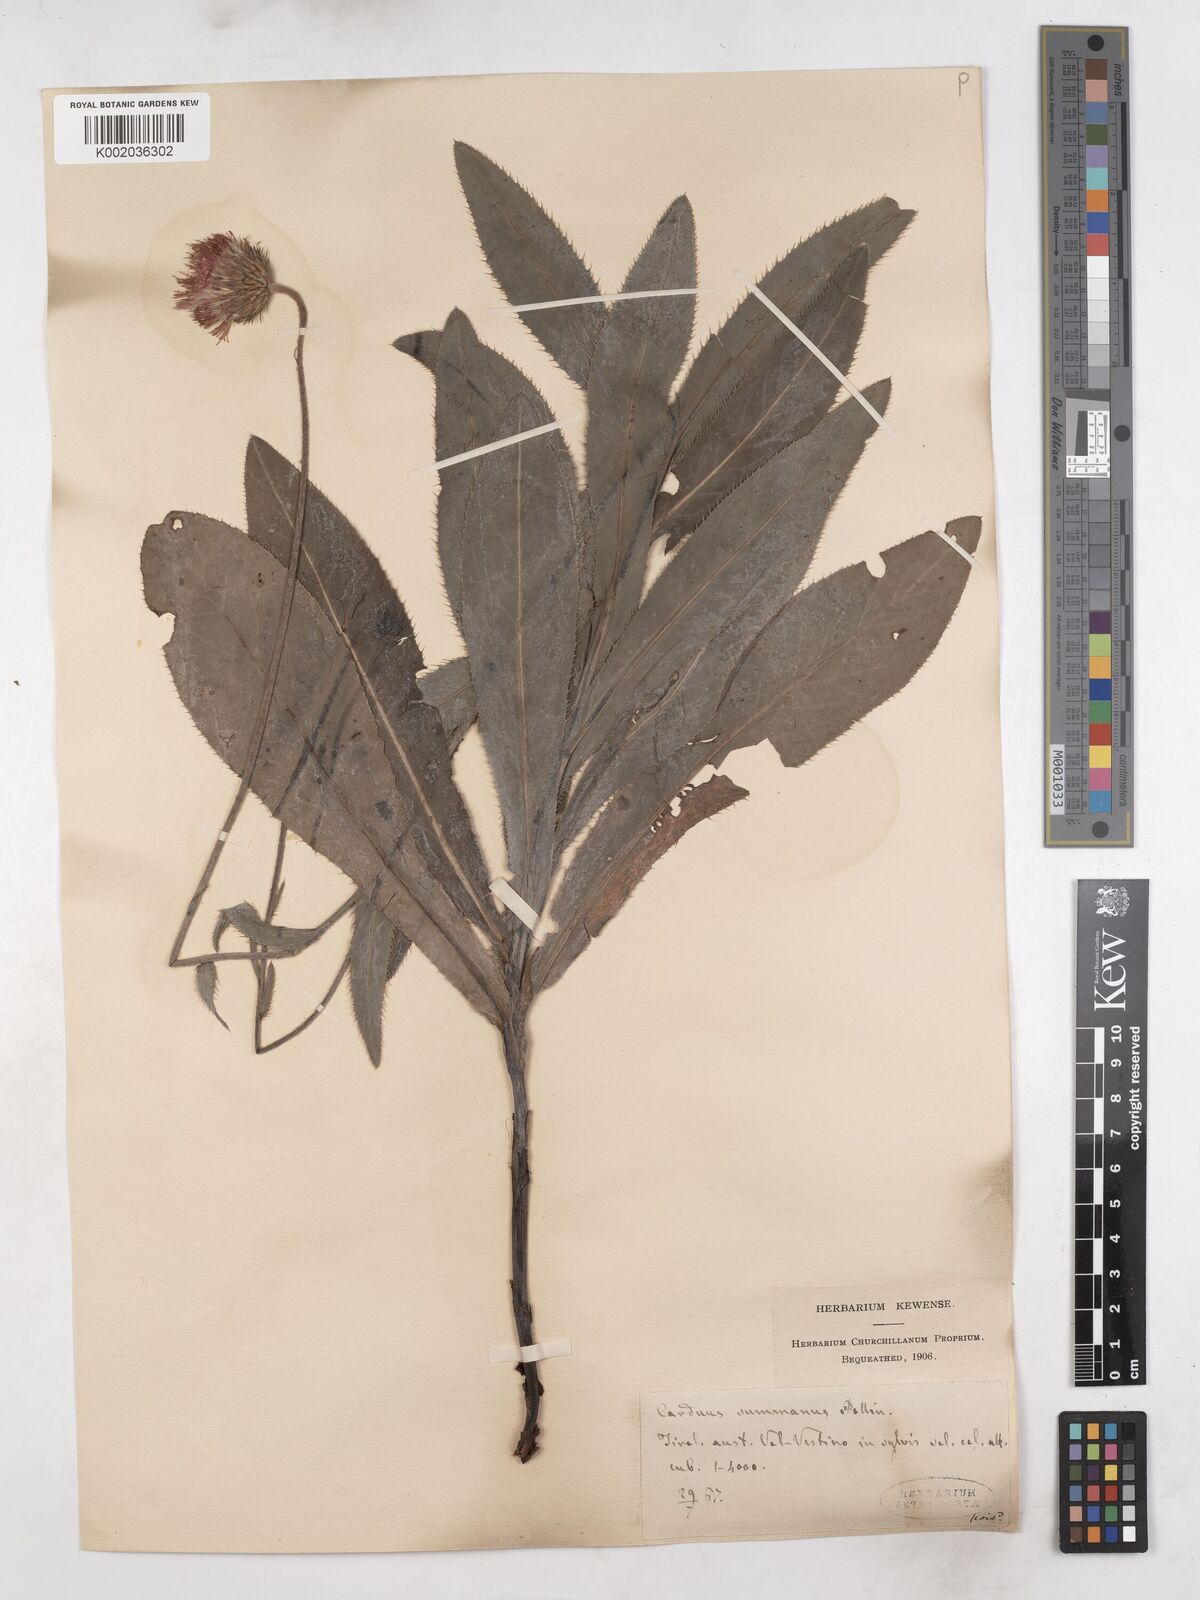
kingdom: Plantae
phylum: Tracheophyta
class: Magnoliopsida
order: Asterales
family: Asteraceae
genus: Carduus
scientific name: Carduus defloratus
